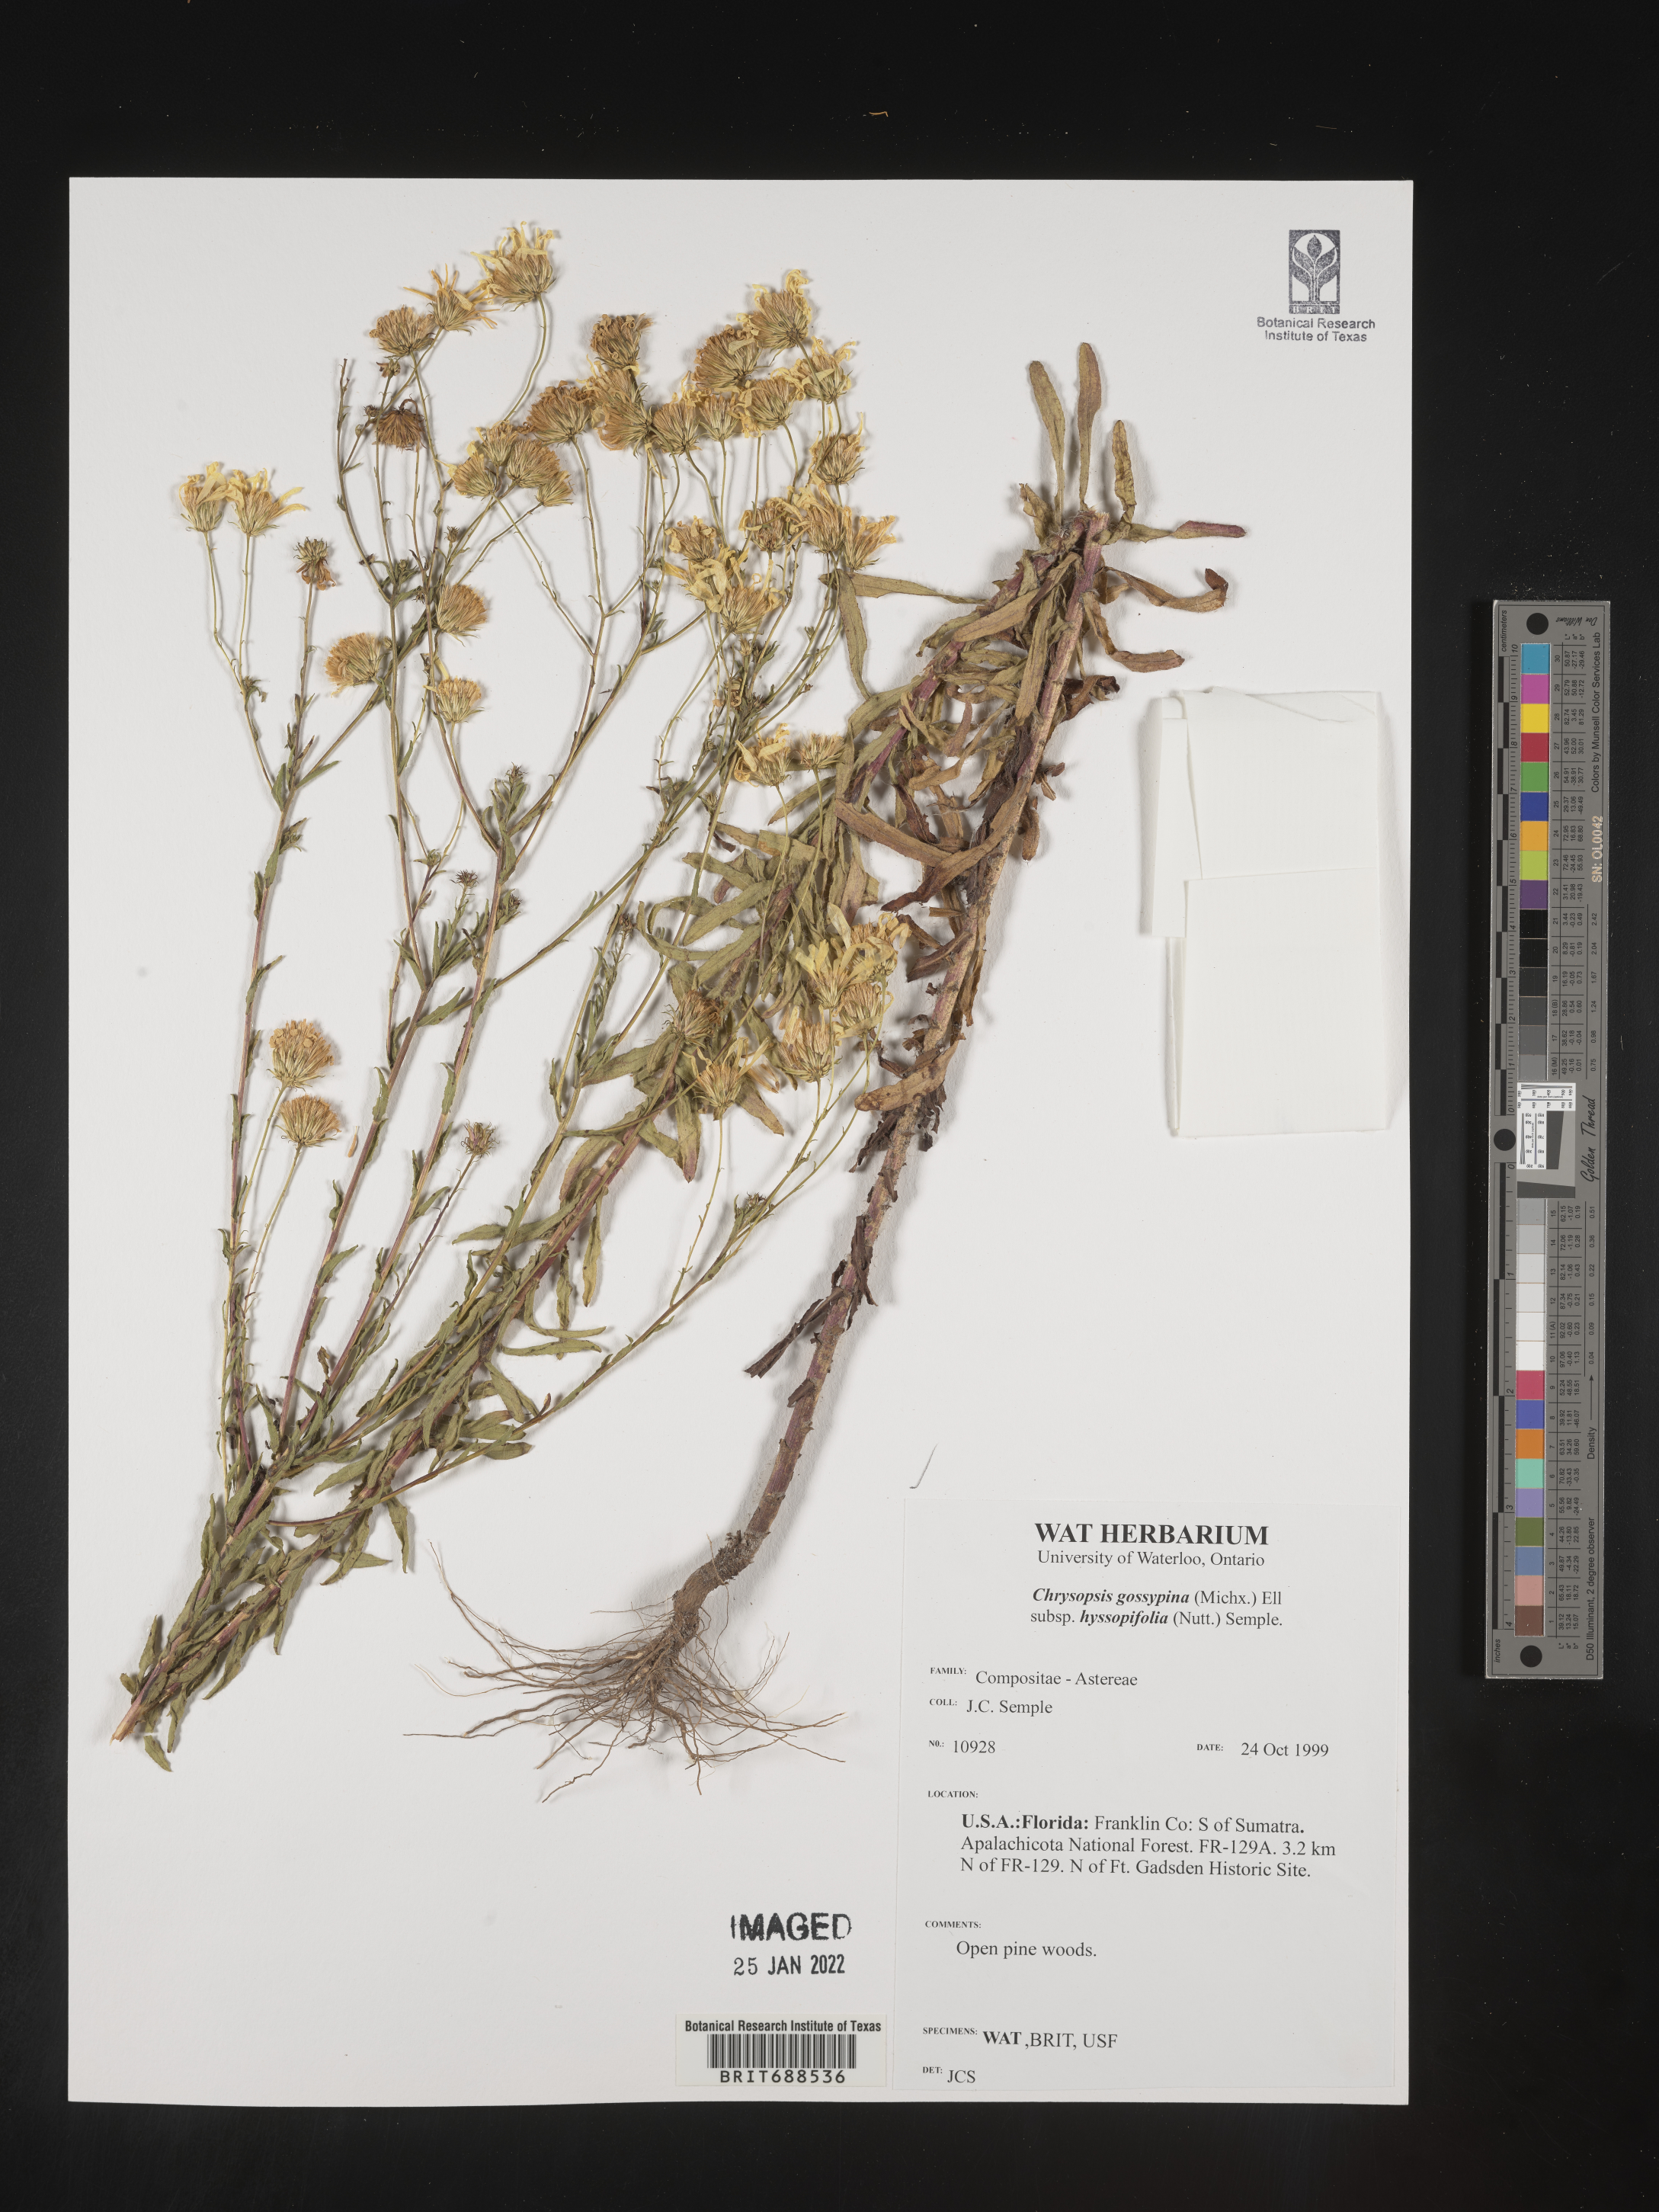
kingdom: Plantae
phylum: Tracheophyta
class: Magnoliopsida
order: Asterales
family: Asteraceae
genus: Chrysopsis
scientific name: Chrysopsis gossypina
